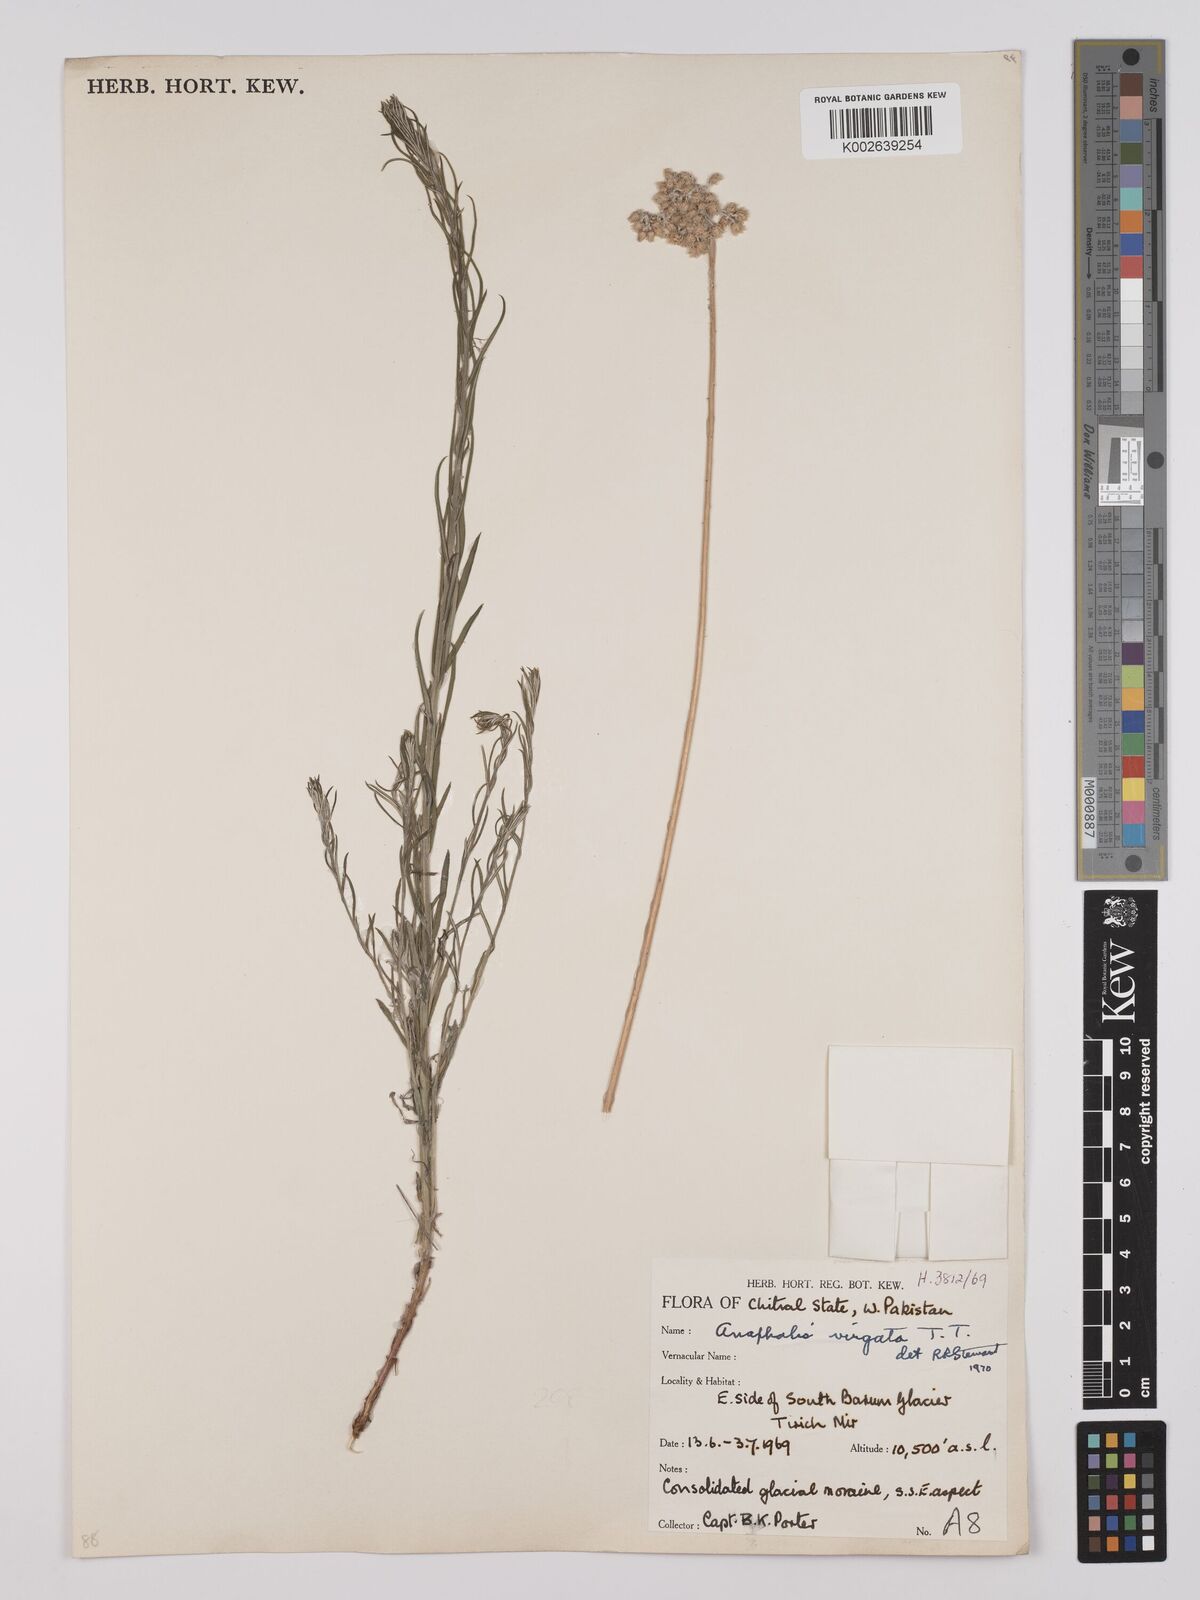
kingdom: Plantae
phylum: Tracheophyta
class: Magnoliopsida
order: Asterales
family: Asteraceae
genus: Anaphalis
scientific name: Anaphalis
